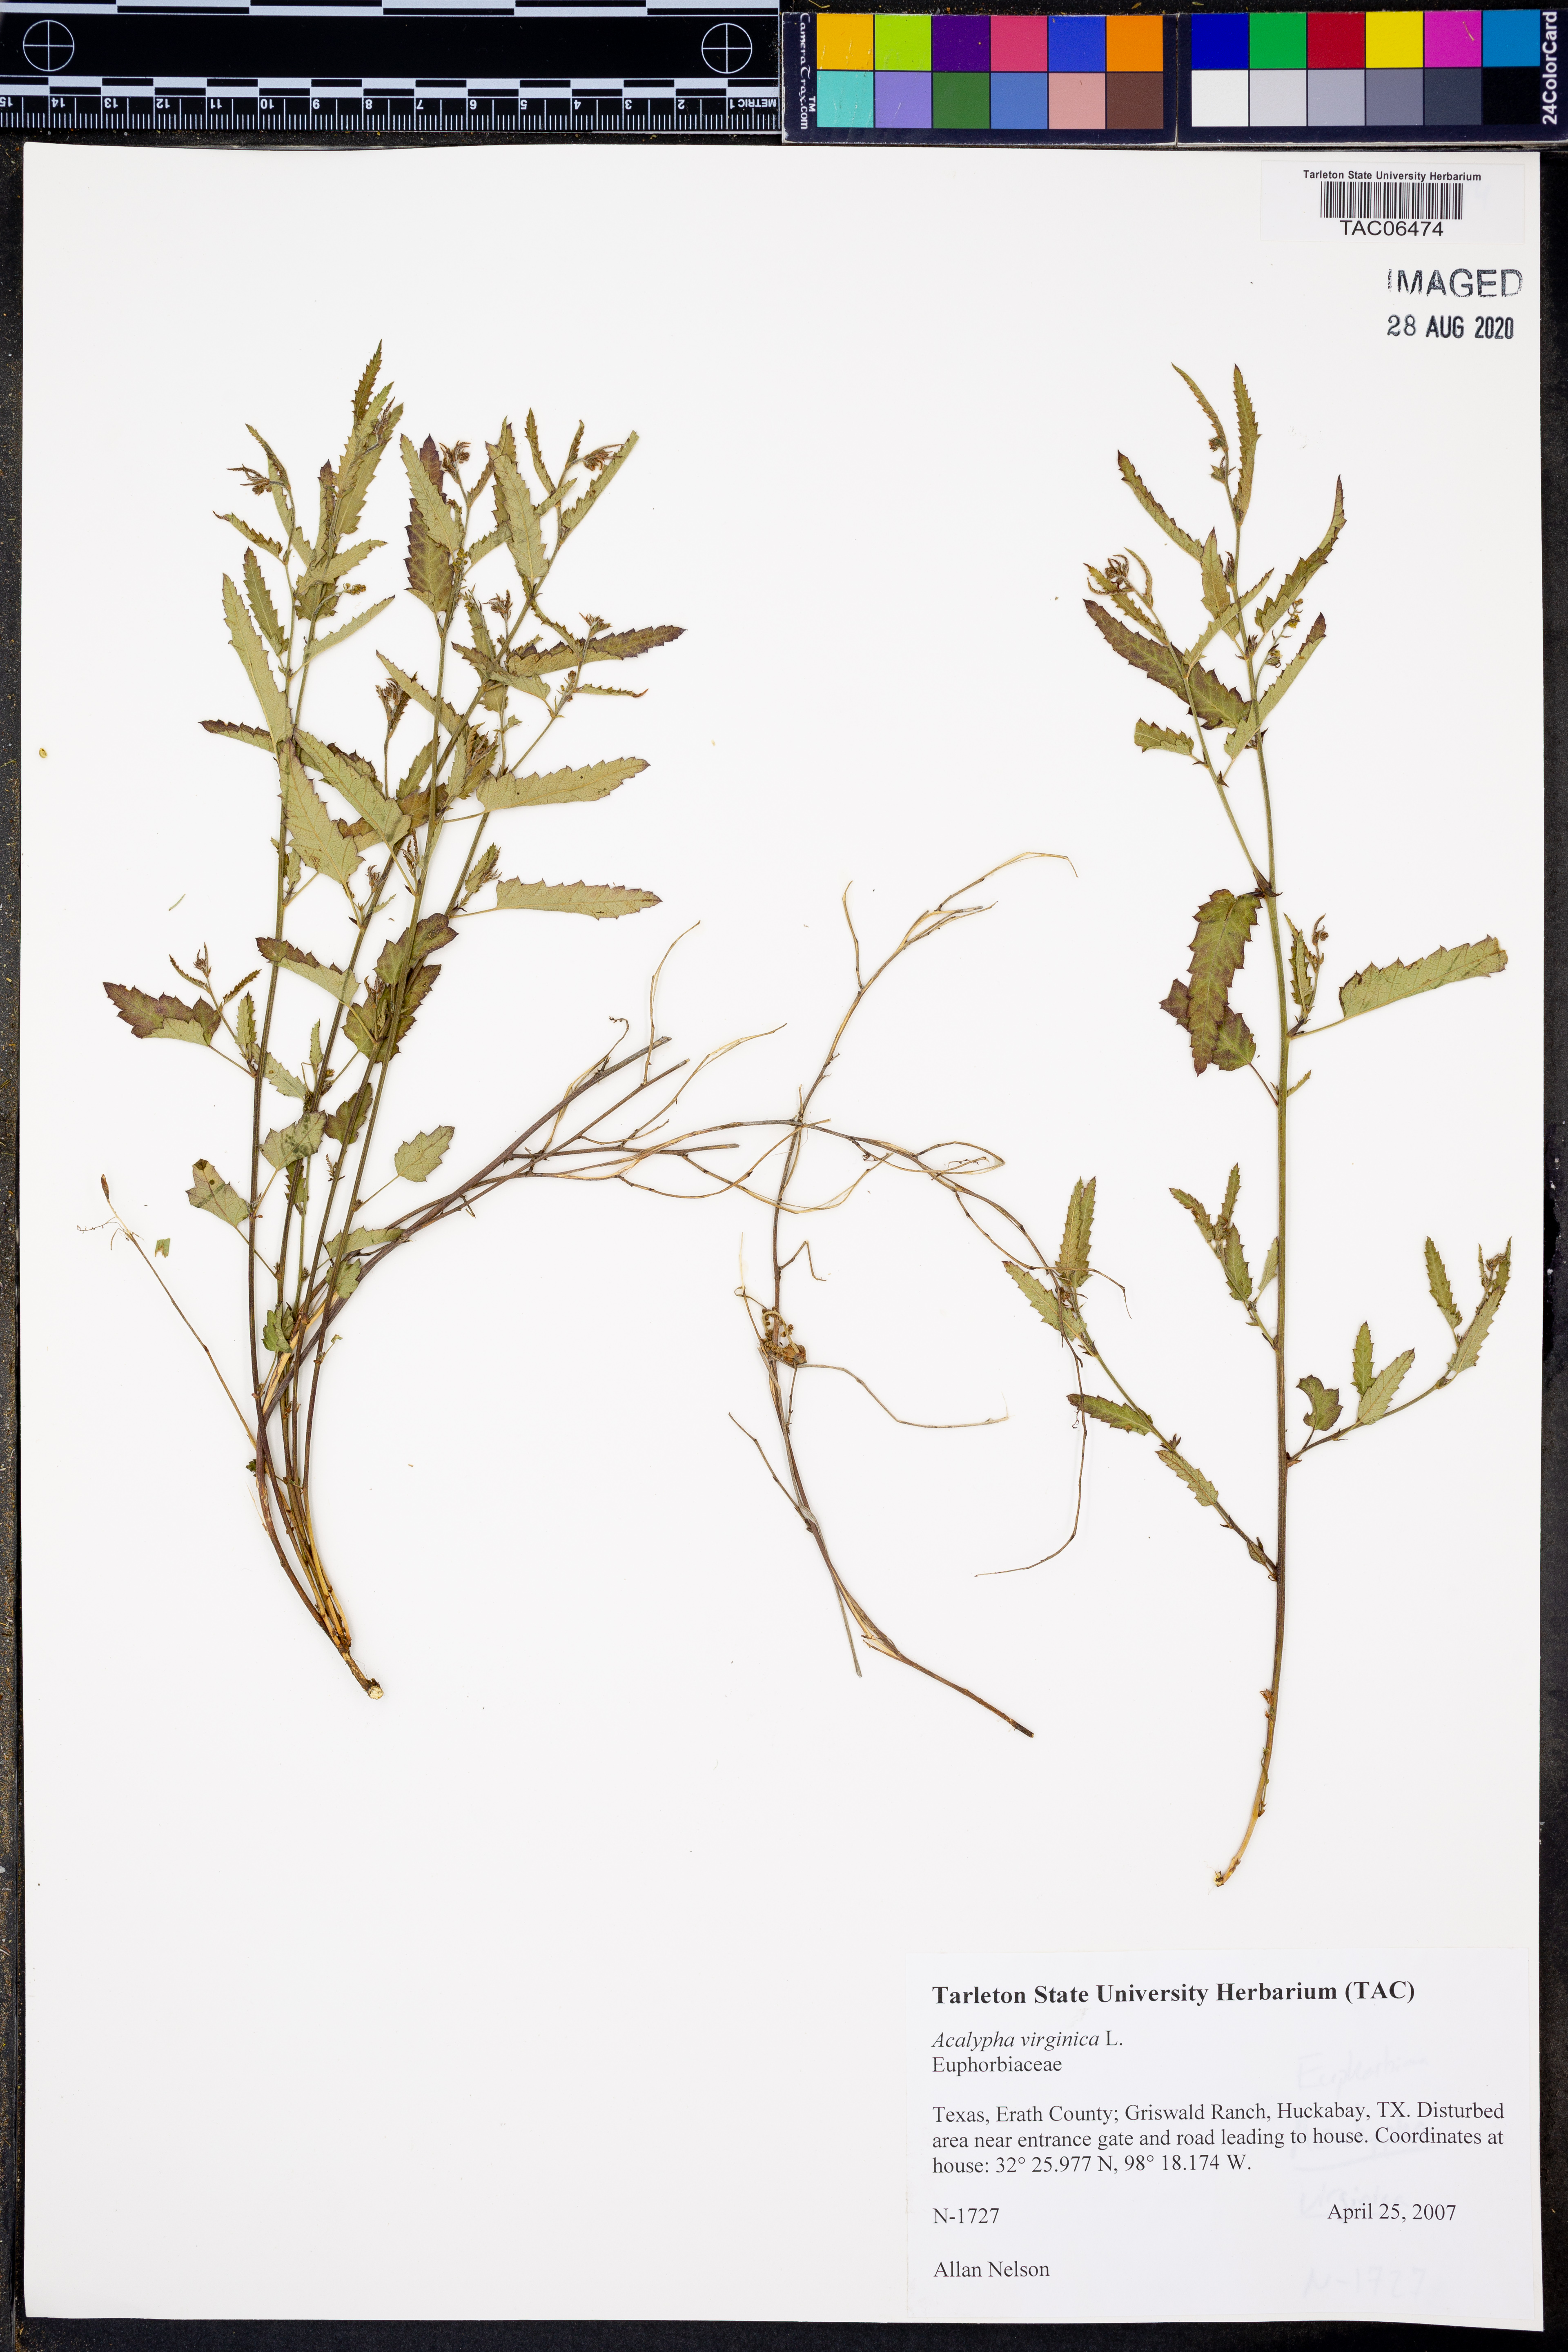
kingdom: Plantae
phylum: Tracheophyta
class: Magnoliopsida
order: Malpighiales
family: Euphorbiaceae
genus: Acalypha
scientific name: Acalypha virginica
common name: Virginia copperleaf
